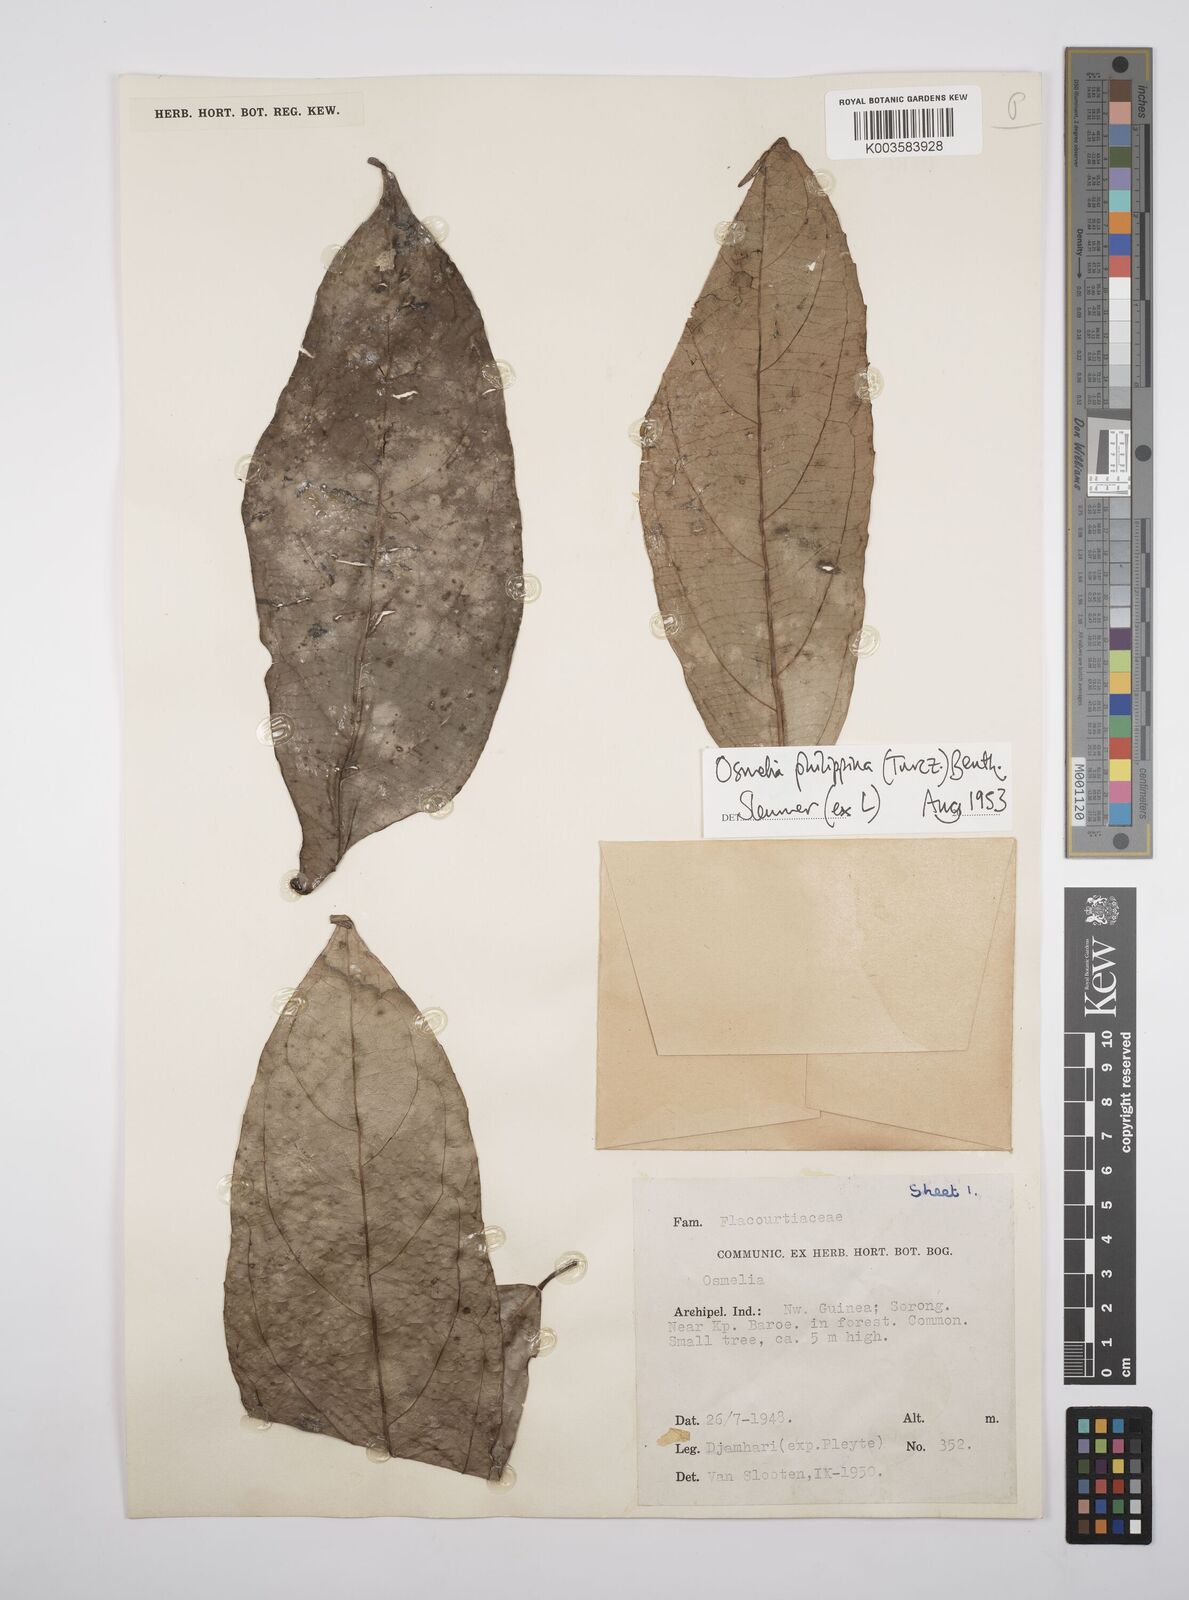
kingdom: Plantae
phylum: Tracheophyta
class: Magnoliopsida
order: Malpighiales
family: Salicaceae
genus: Osmelia
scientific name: Osmelia philippina
